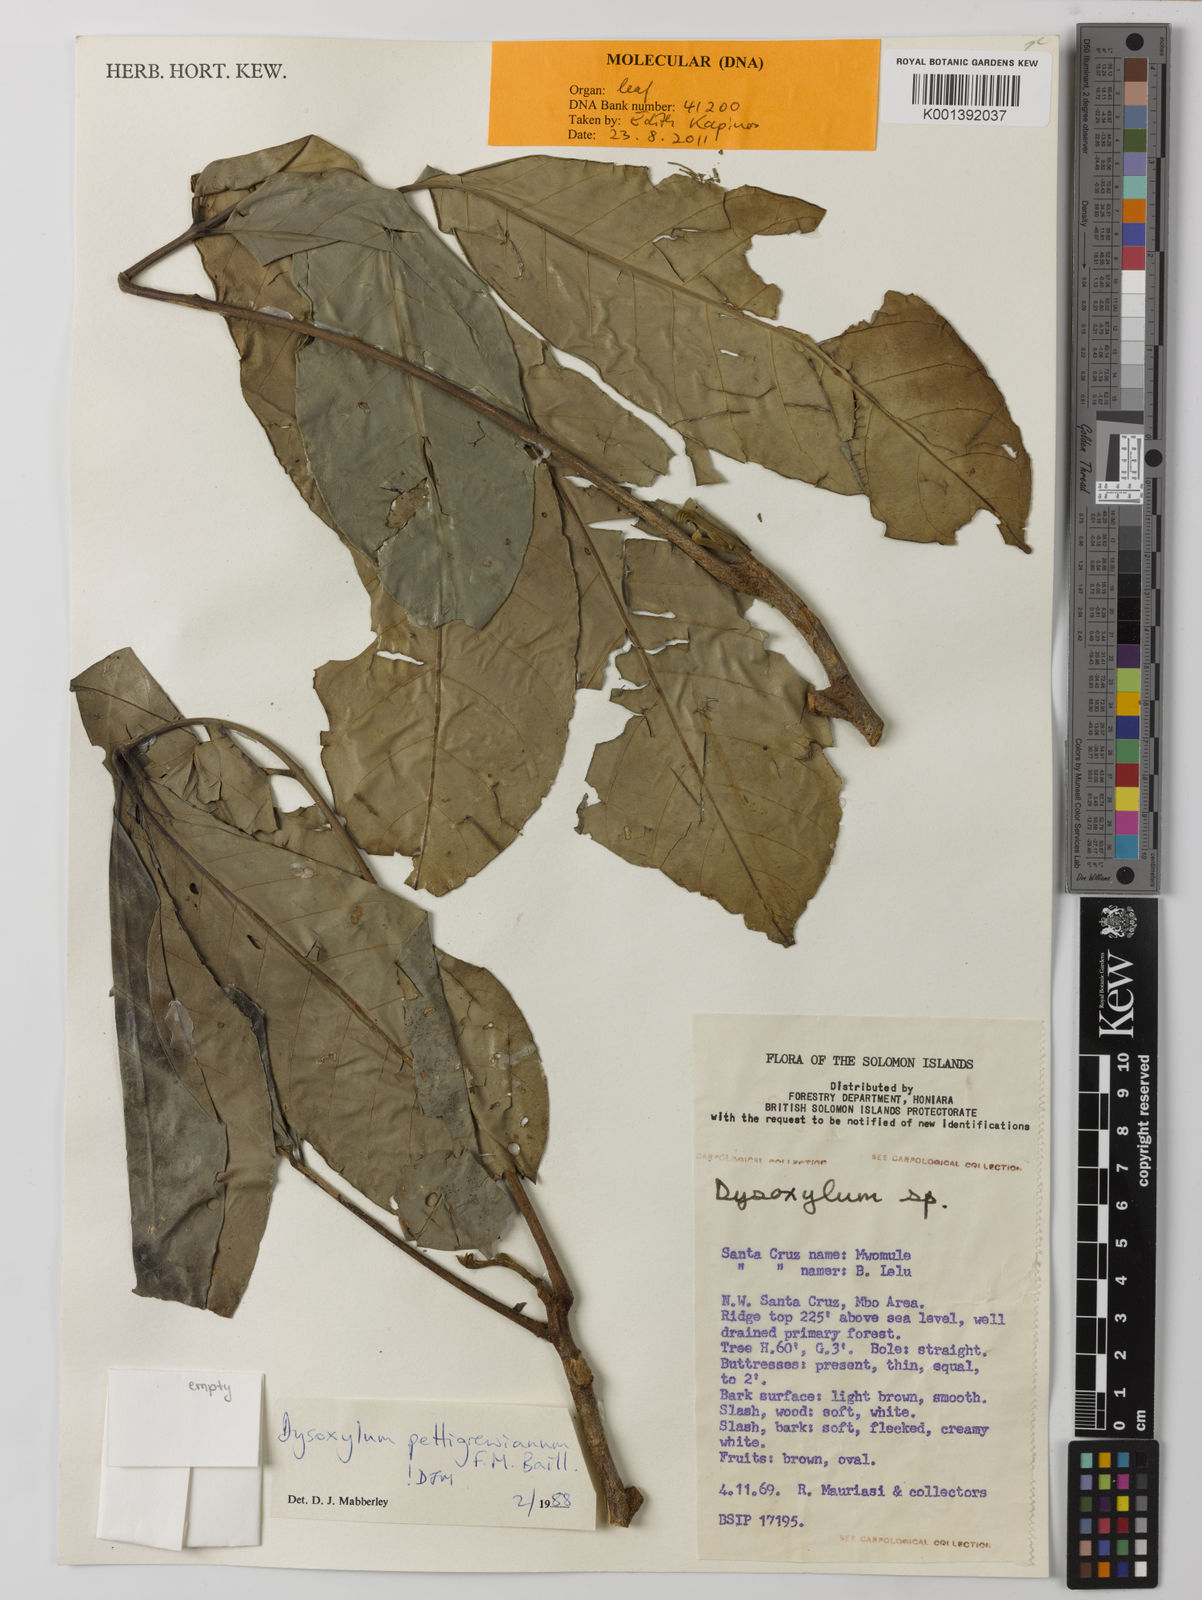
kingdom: Plantae
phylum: Tracheophyta
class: Magnoliopsida
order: Sapindales
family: Meliaceae
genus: Didymocheton
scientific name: Didymocheton pettigrewianus
